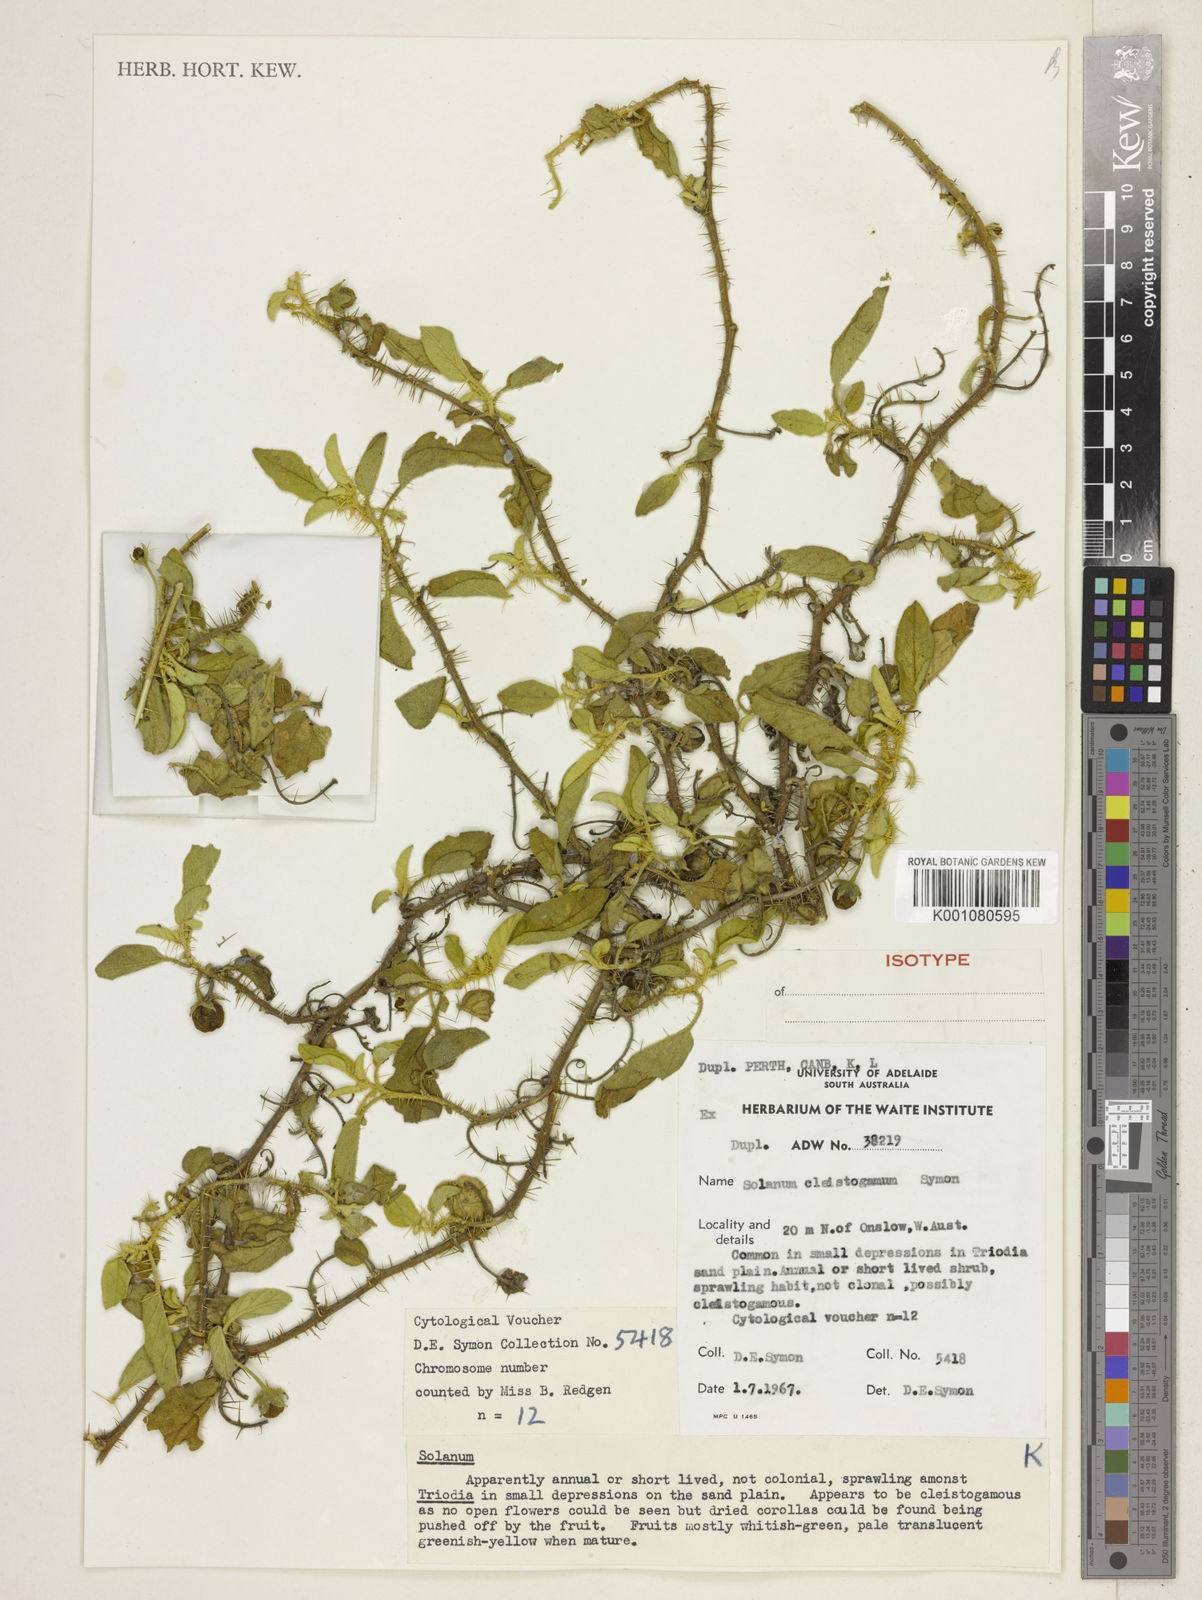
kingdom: Plantae
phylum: Tracheophyta
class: Magnoliopsida
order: Solanales
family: Solanaceae
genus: Solanum
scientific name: Solanum cleistogamum
